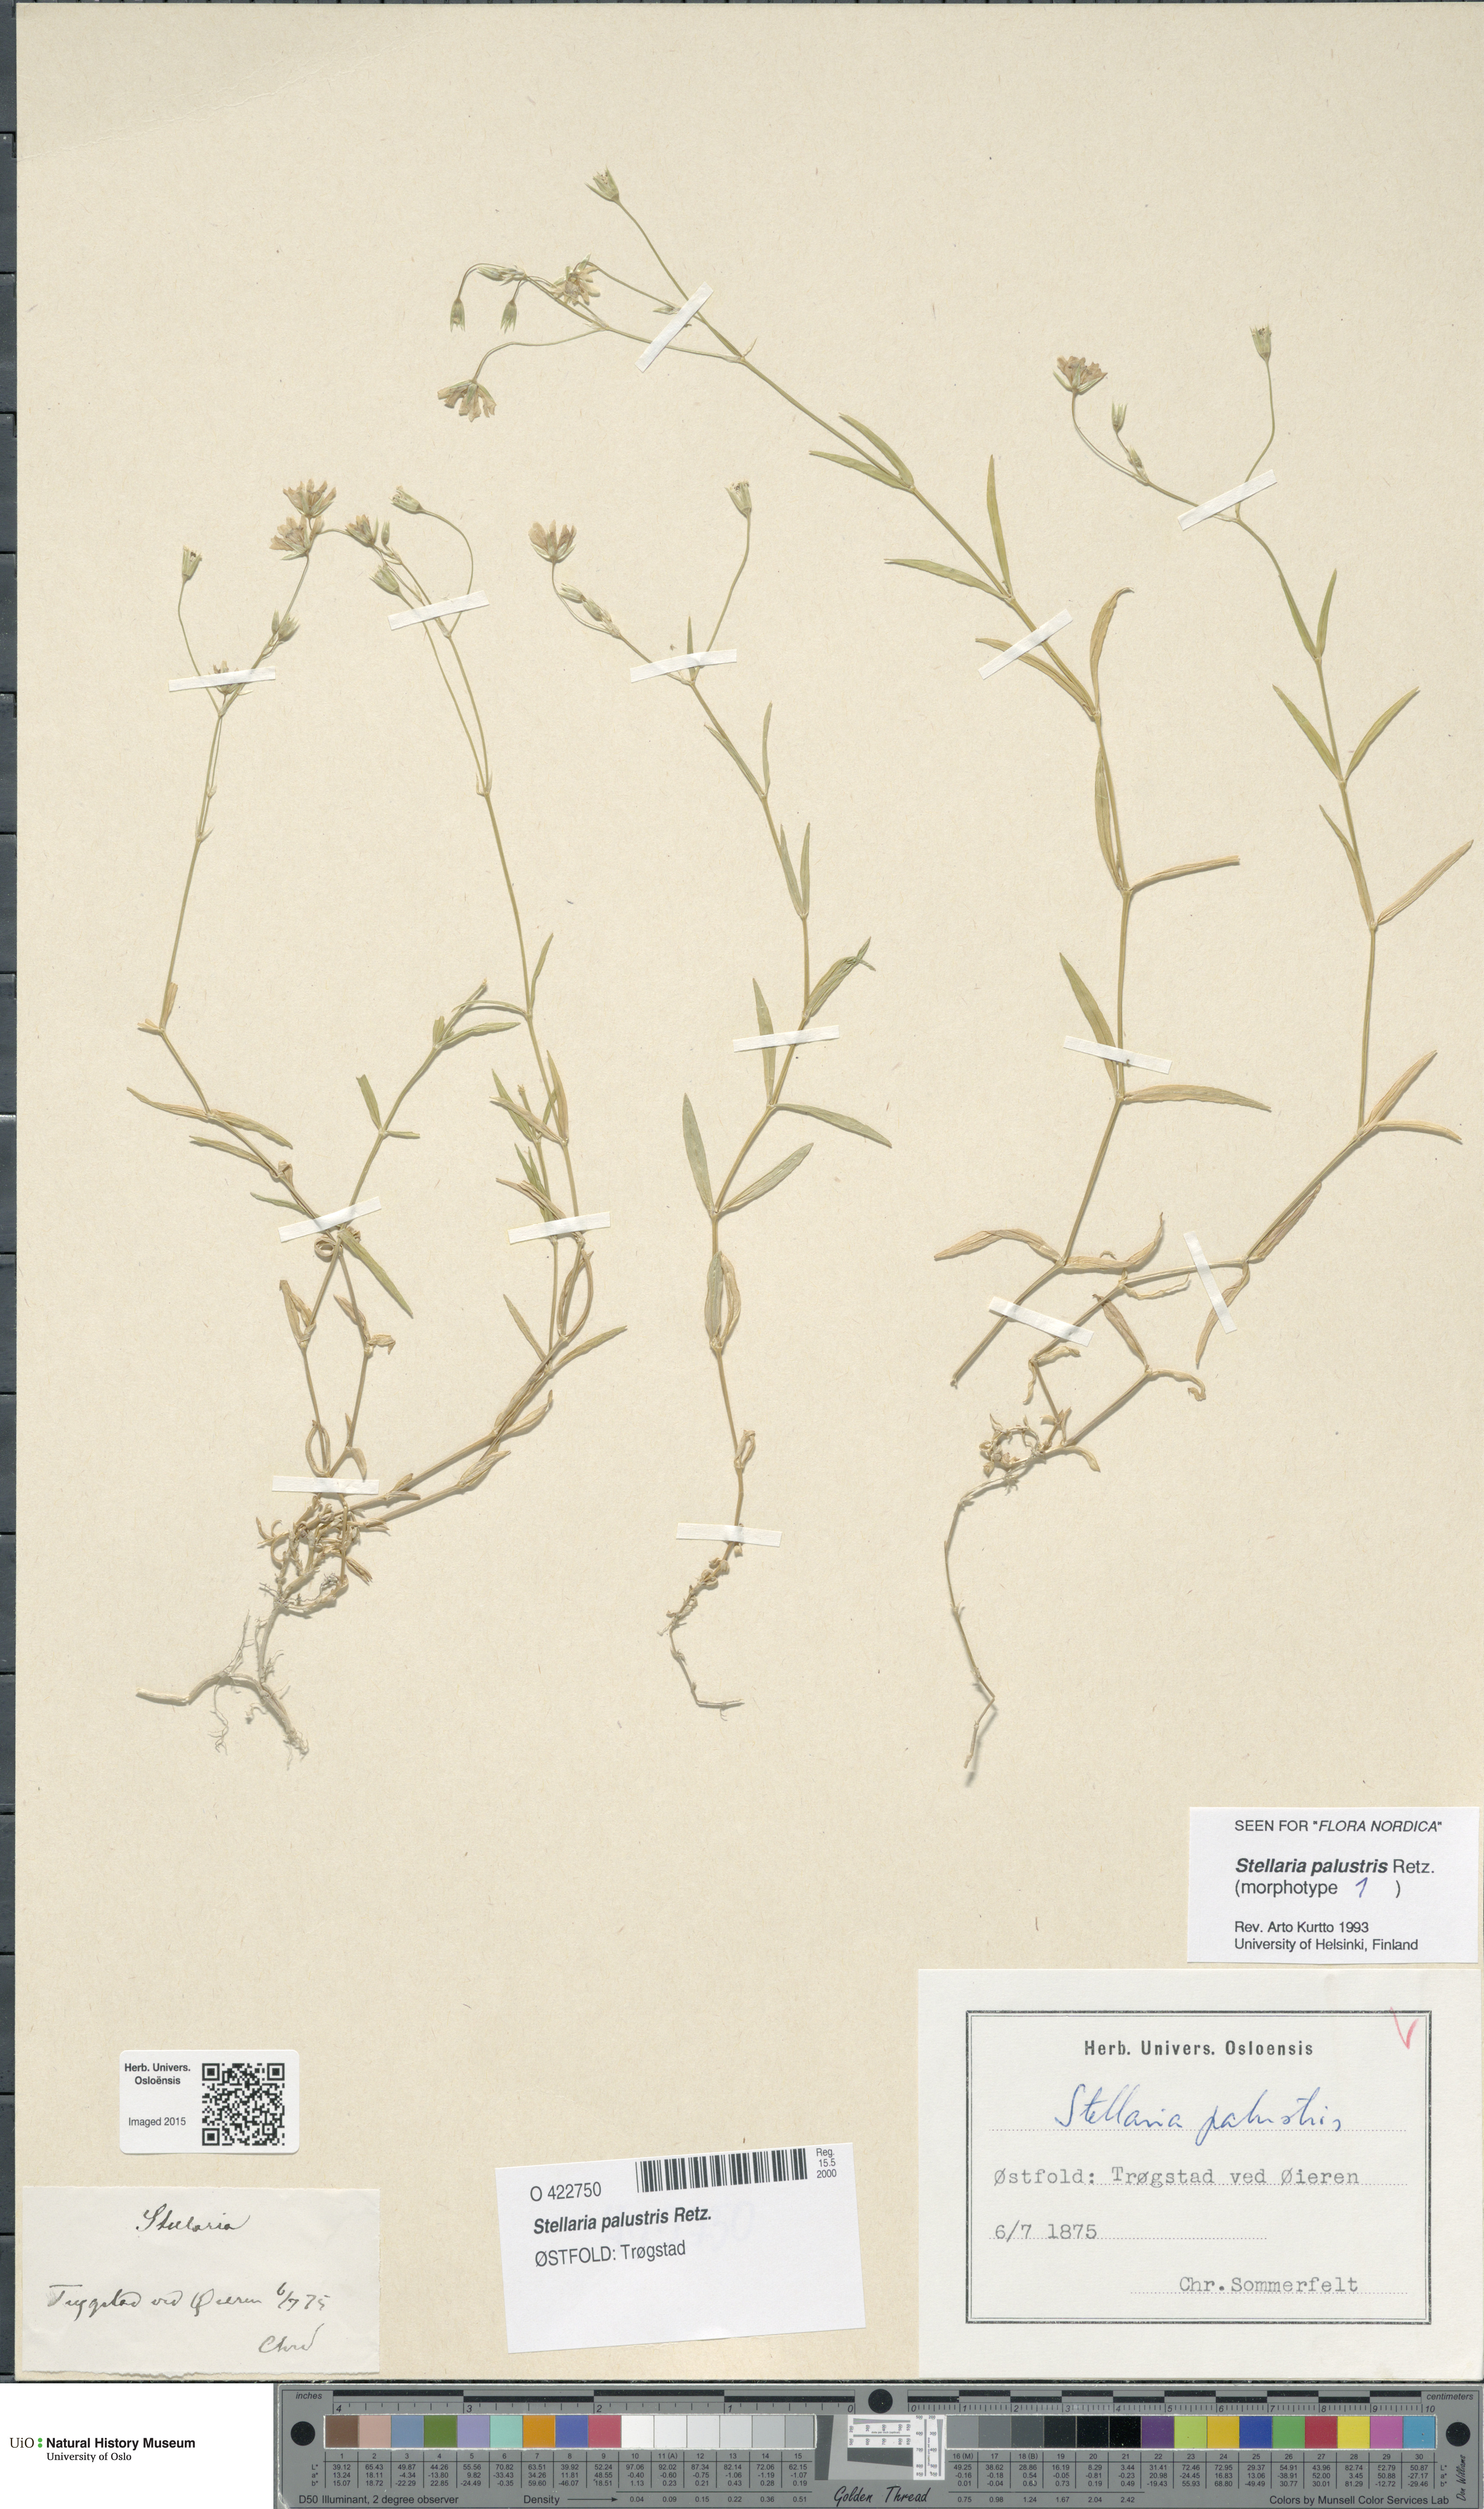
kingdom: Plantae
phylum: Tracheophyta
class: Magnoliopsida
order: Caryophyllales
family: Caryophyllaceae
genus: Stellaria
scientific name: Stellaria palustris
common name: Marsh stitchwort
